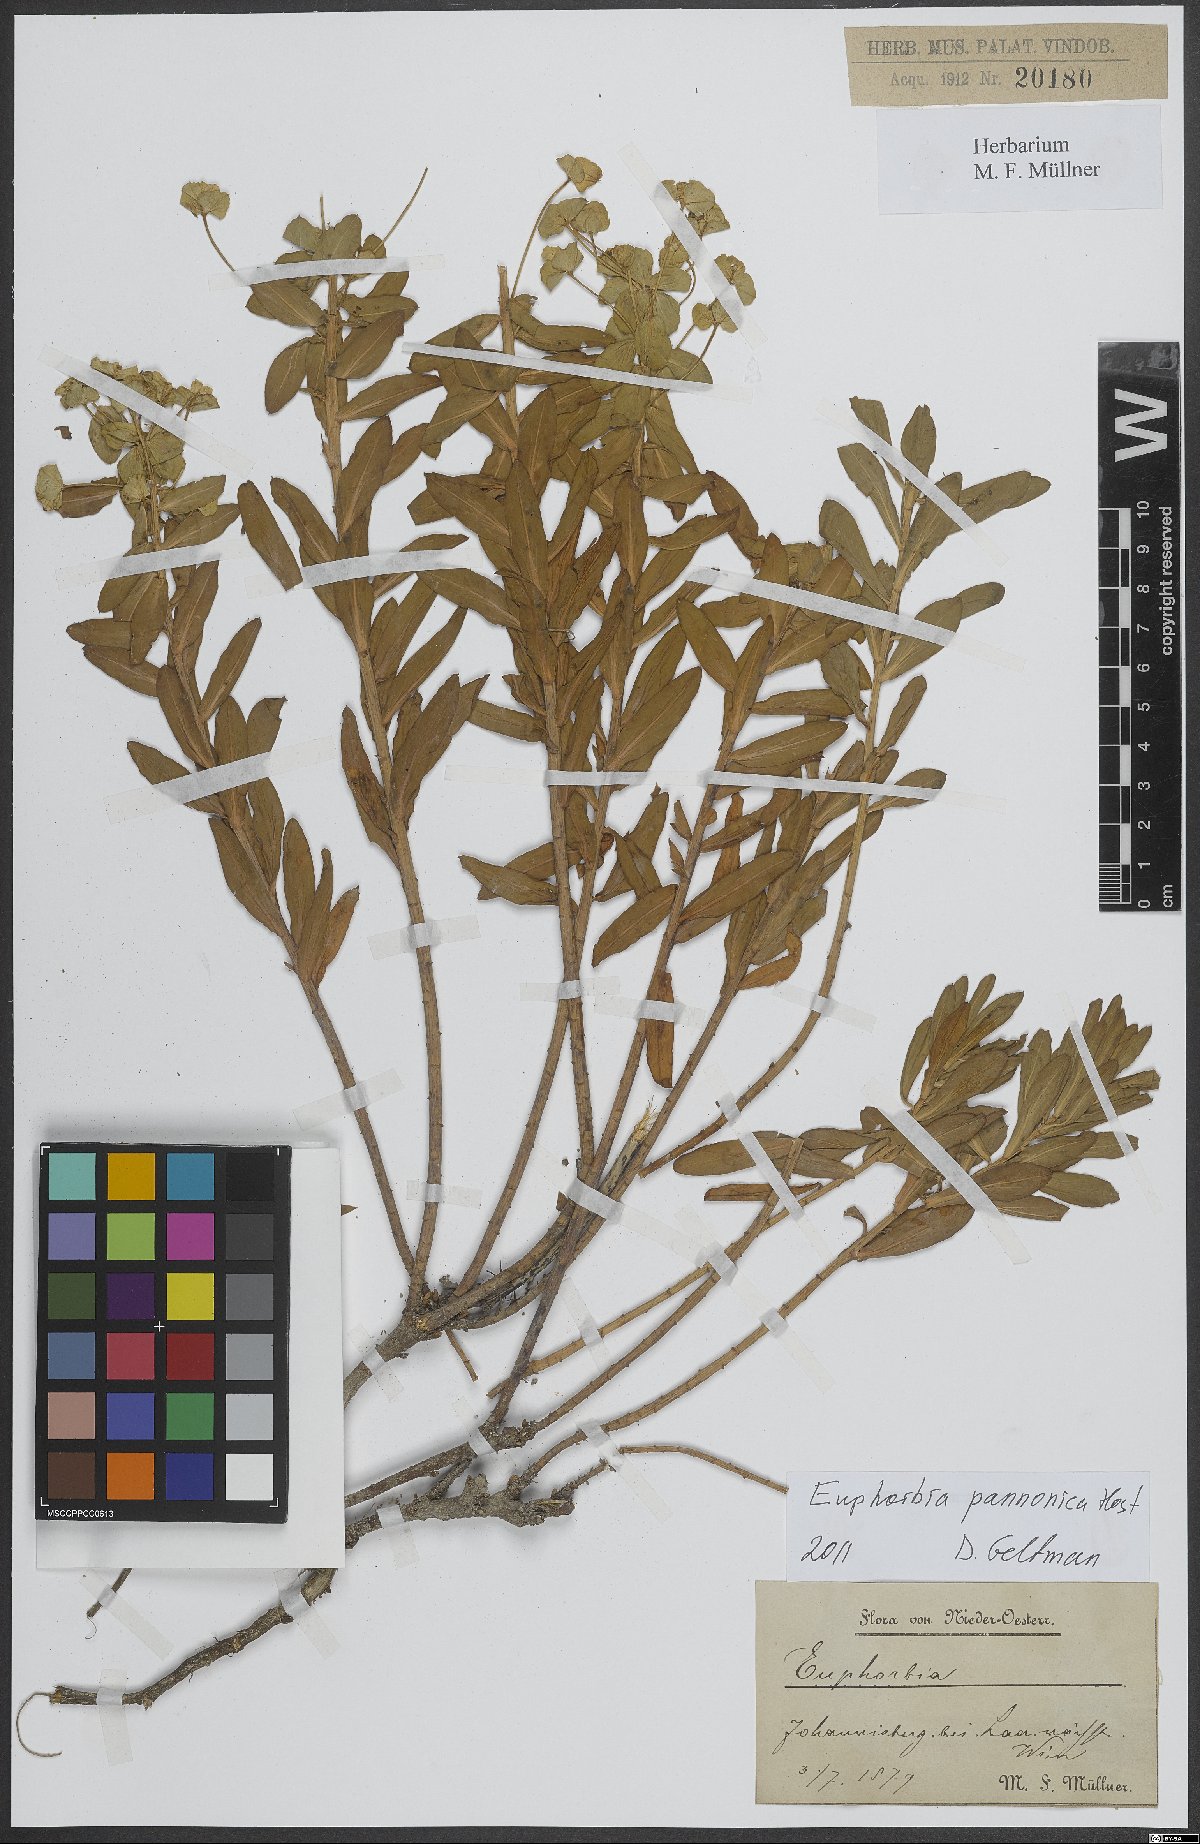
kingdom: Plantae
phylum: Tracheophyta
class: Magnoliopsida
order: Malpighiales
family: Euphorbiaceae
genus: Euphorbia
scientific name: Euphorbia pannonica
